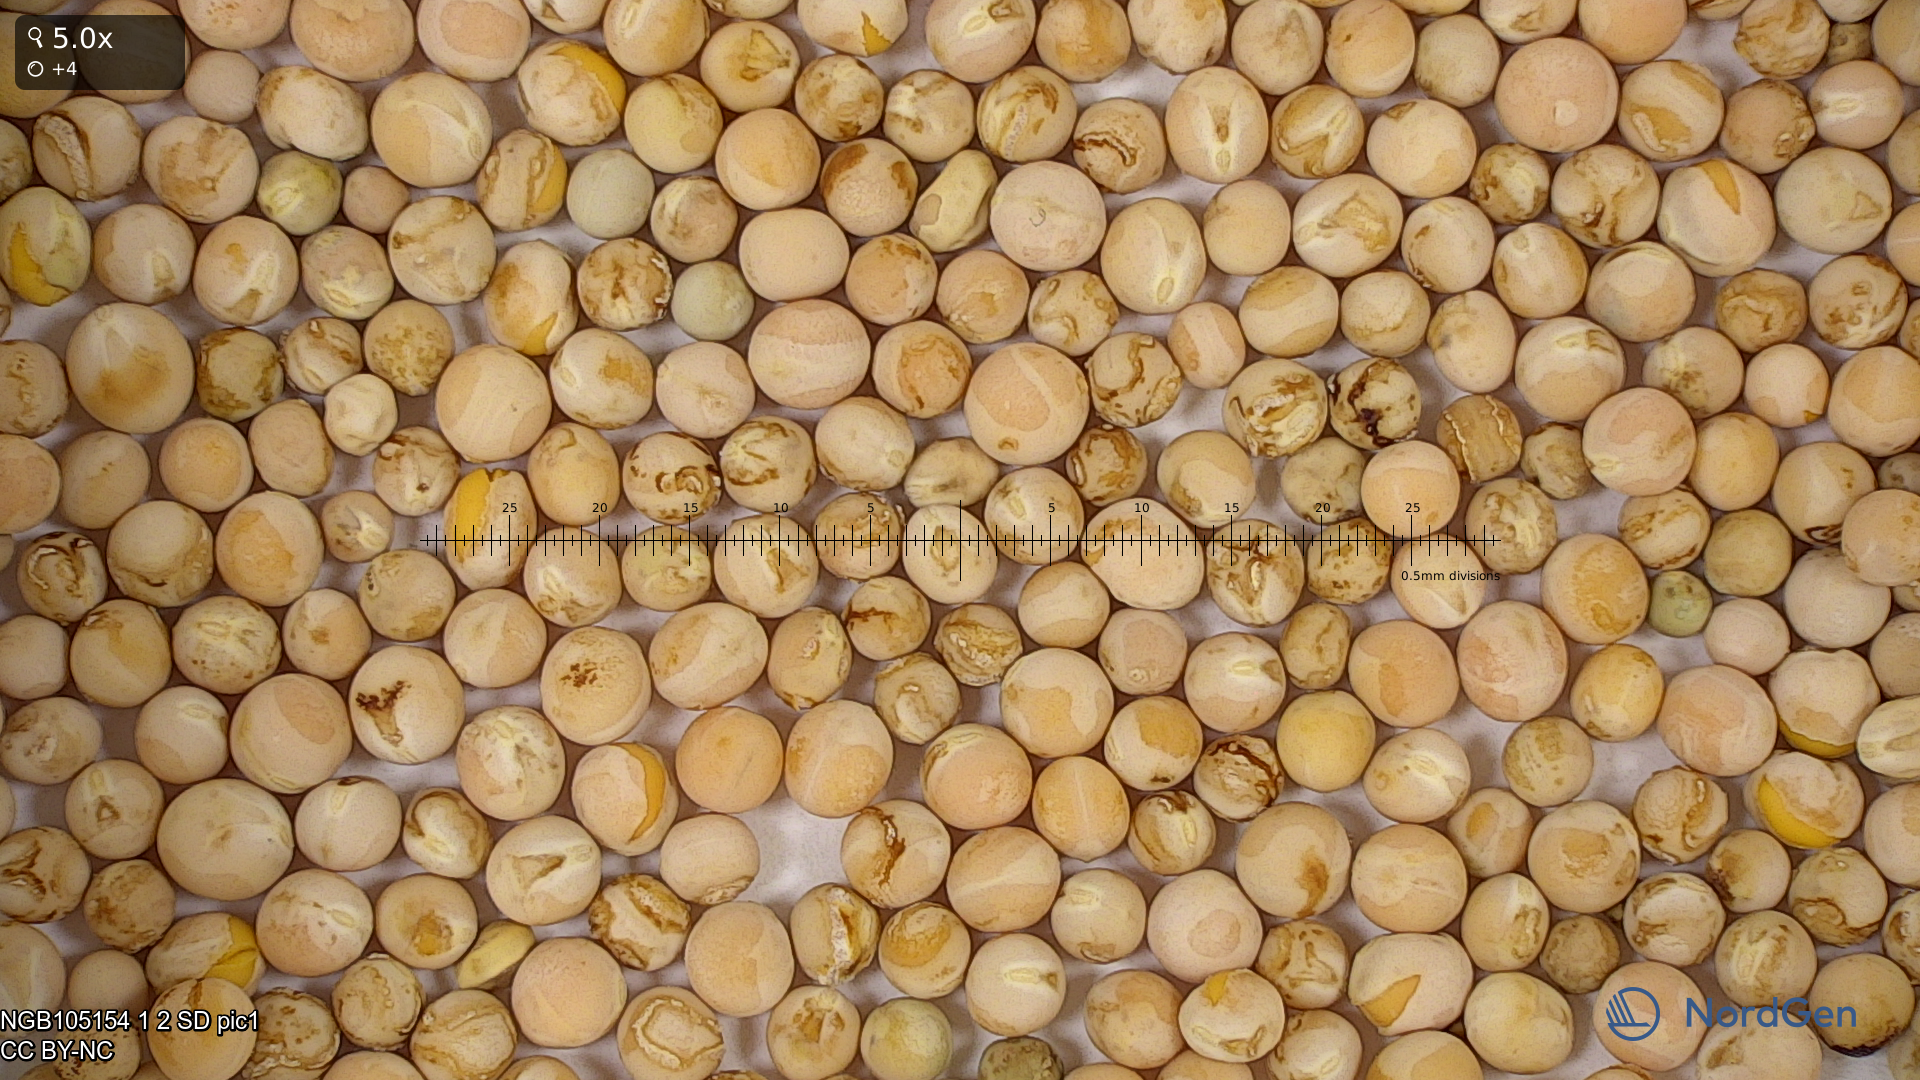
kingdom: Plantae
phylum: Tracheophyta
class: Magnoliopsida
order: Fabales
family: Fabaceae
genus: Lathyrus
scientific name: Lathyrus oleraceus
